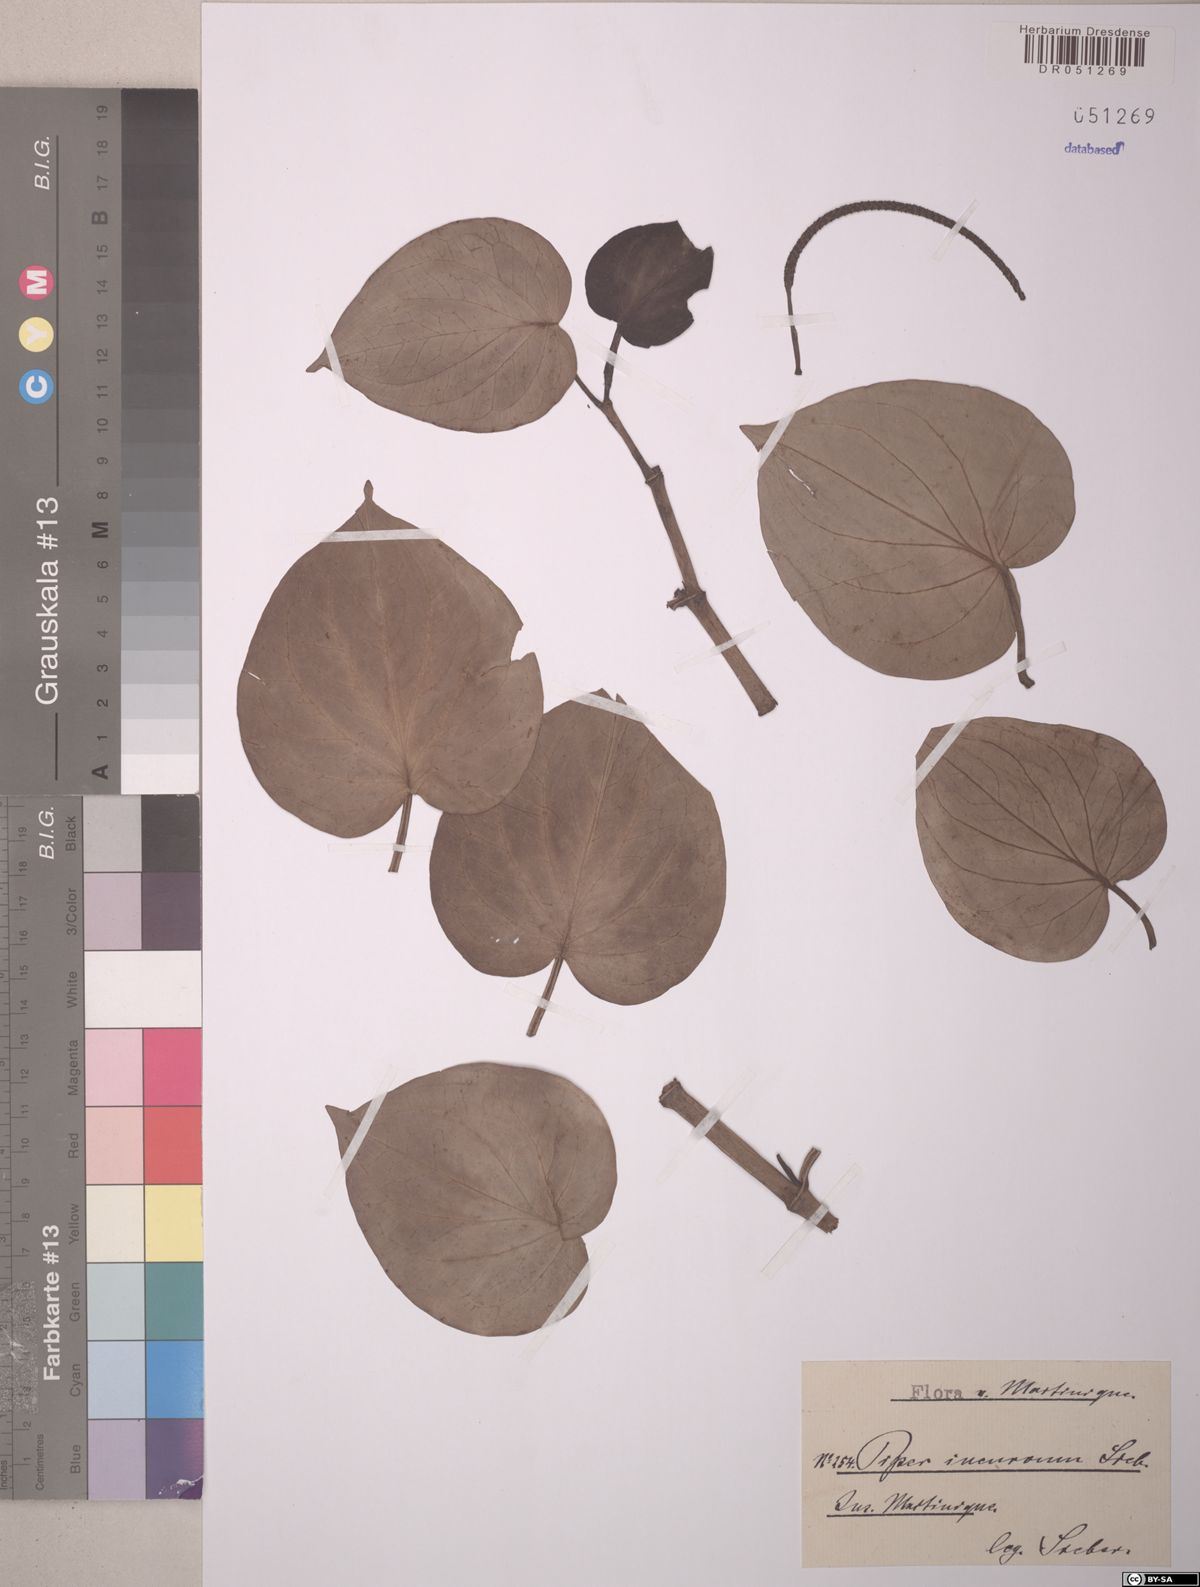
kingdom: Plantae
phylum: Tracheophyta
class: Magnoliopsida
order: Piperales
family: Piperaceae
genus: Manekia
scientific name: Manekia incurva
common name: Wild black-pepper
